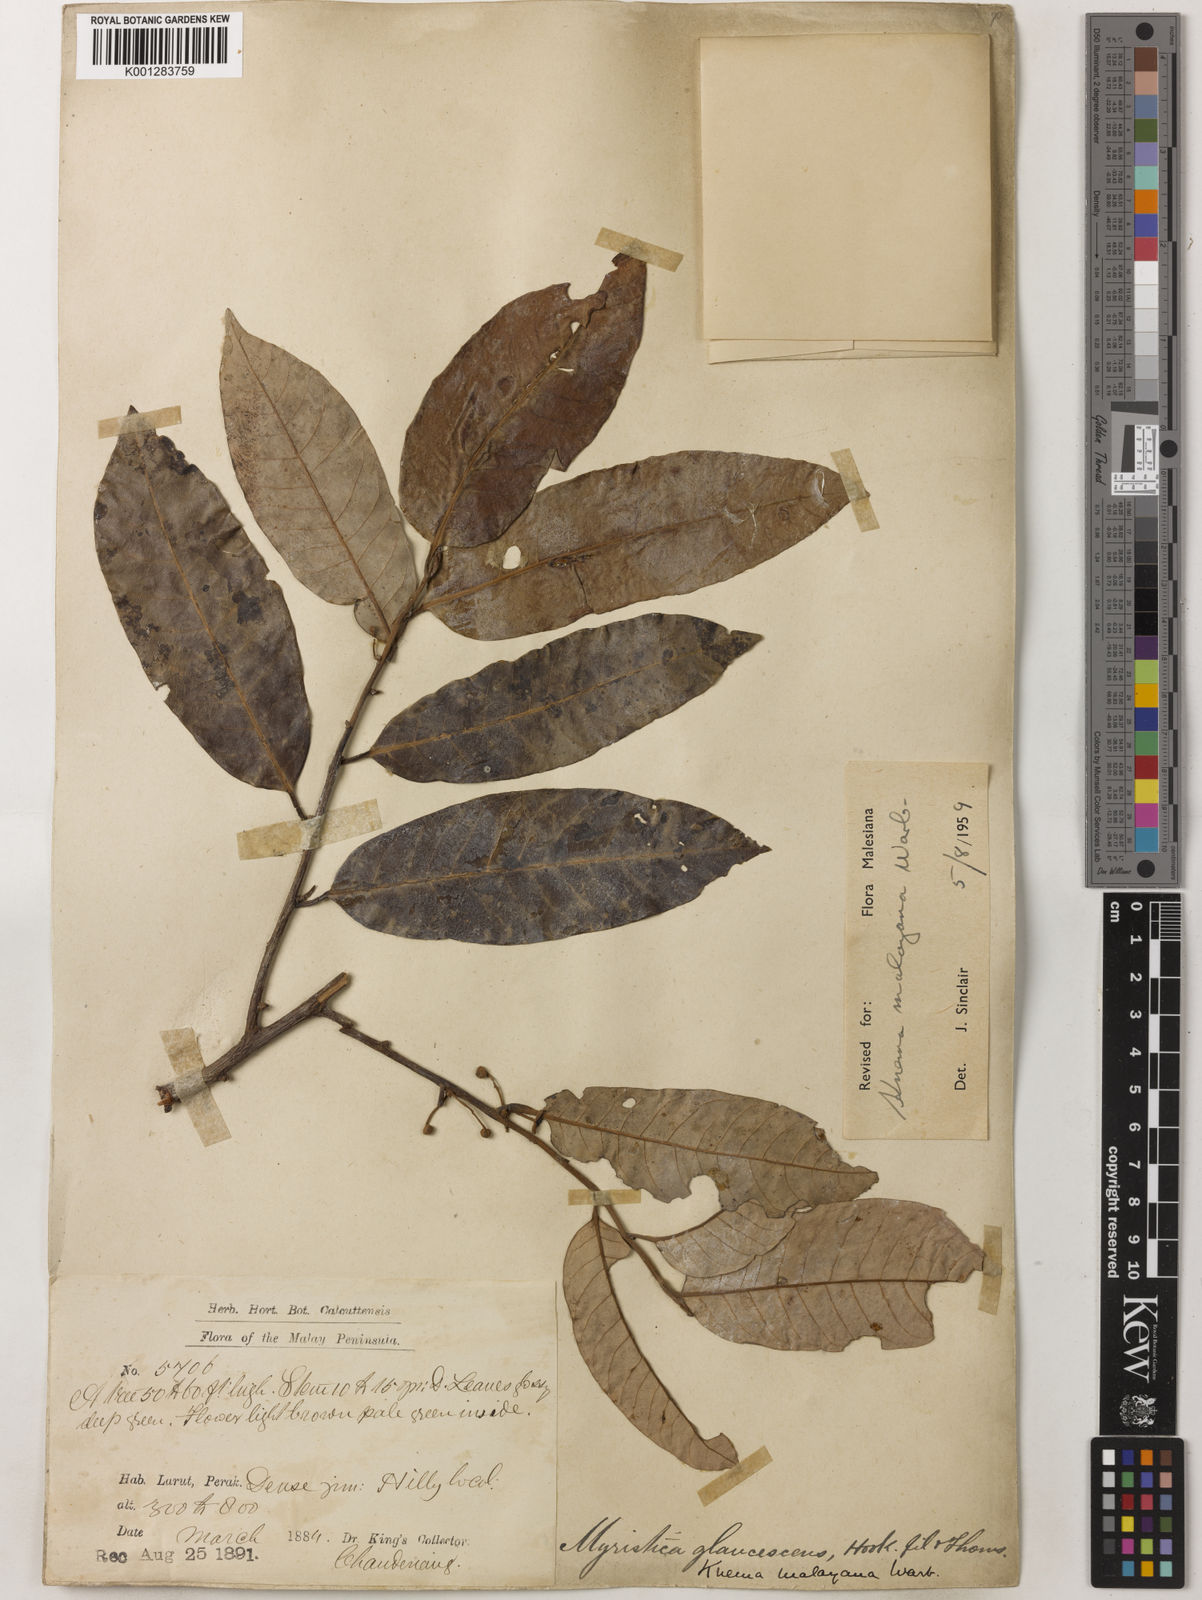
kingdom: Plantae
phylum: Tracheophyta
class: Magnoliopsida
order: Magnoliales
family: Myristicaceae
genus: Knema
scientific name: Knema malayana
